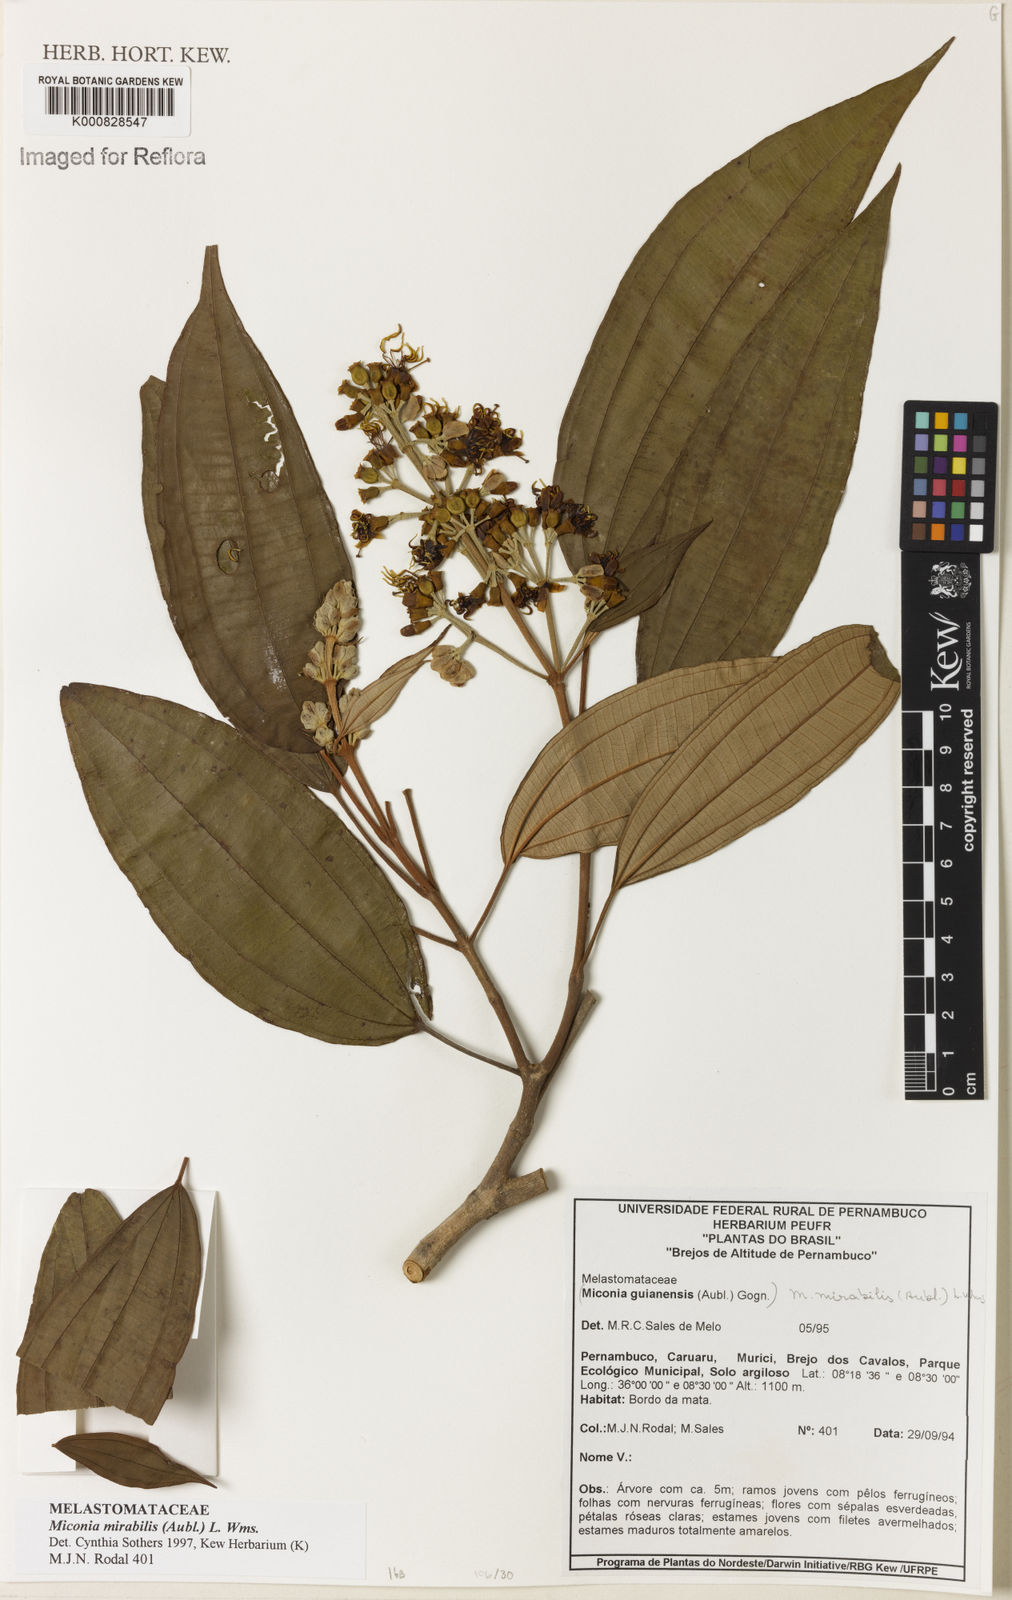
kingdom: Plantae
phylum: Tracheophyta
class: Magnoliopsida
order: Myrtales
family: Melastomataceae
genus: Miconia
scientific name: Miconia mirabilis
